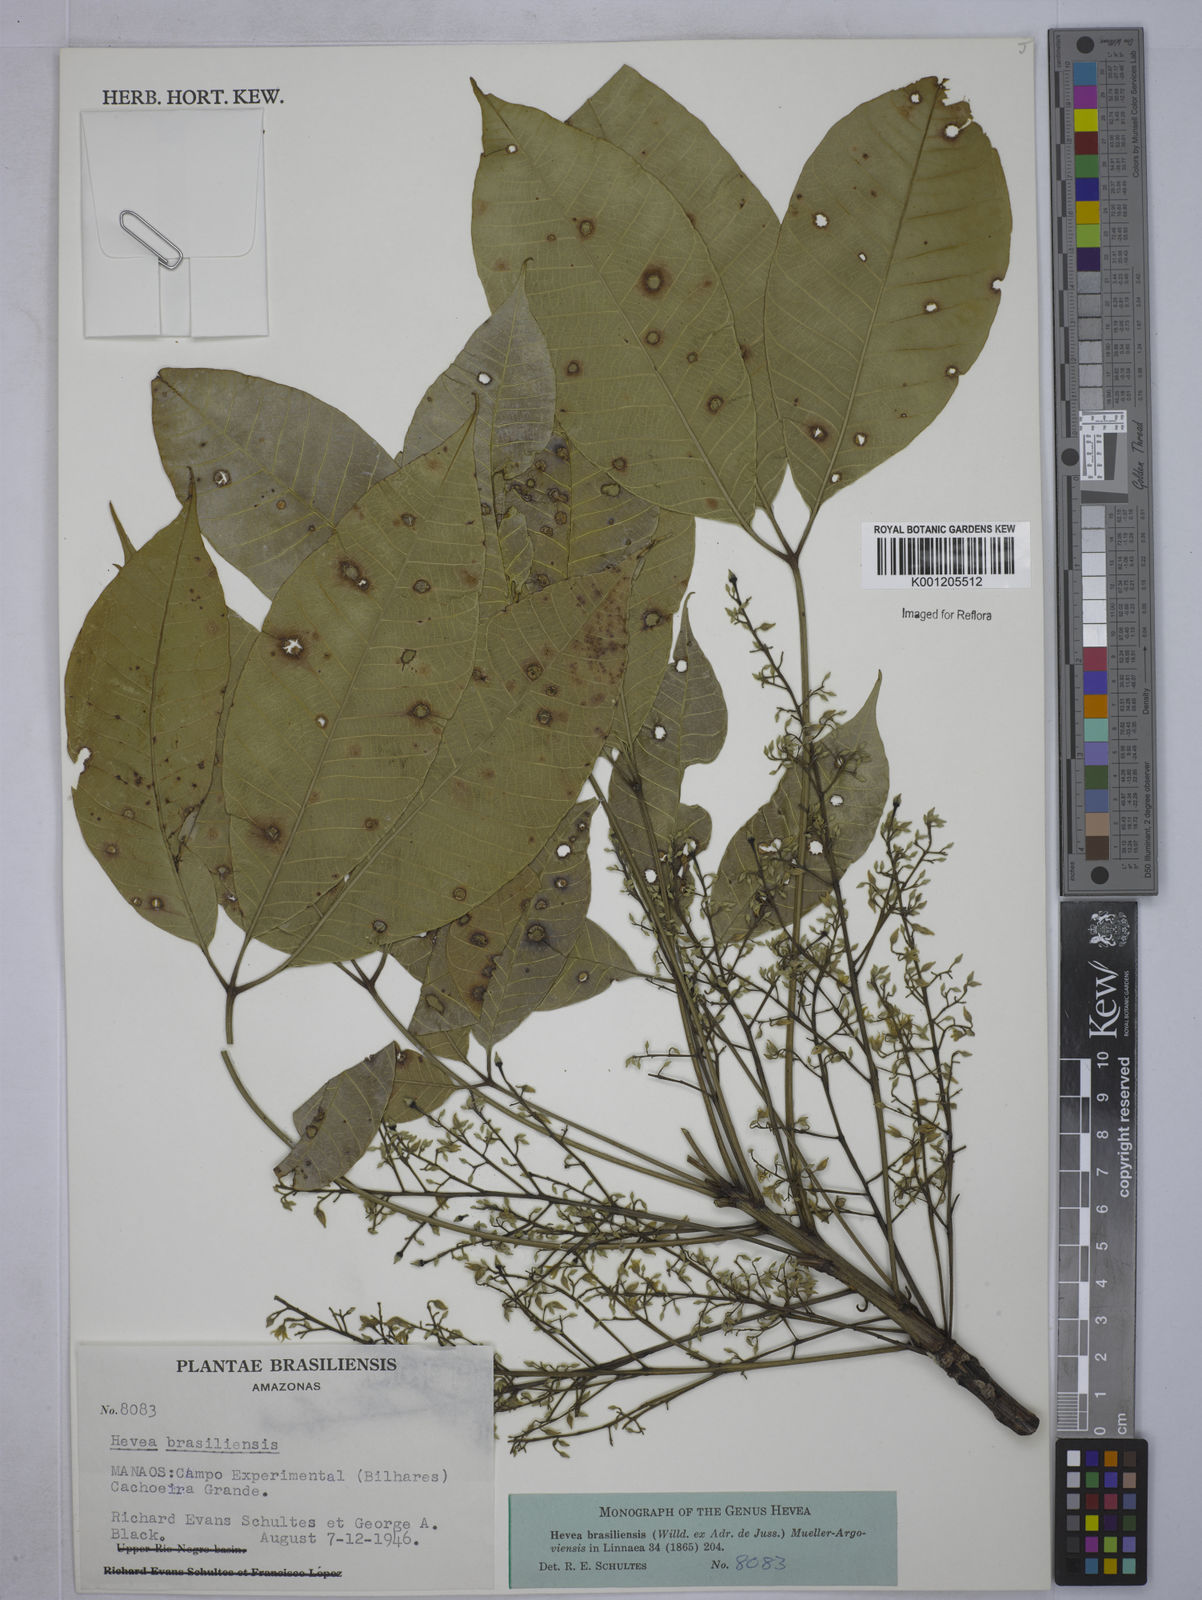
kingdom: Plantae
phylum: Tracheophyta
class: Magnoliopsida
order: Malpighiales
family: Euphorbiaceae
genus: Hevea
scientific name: Hevea
